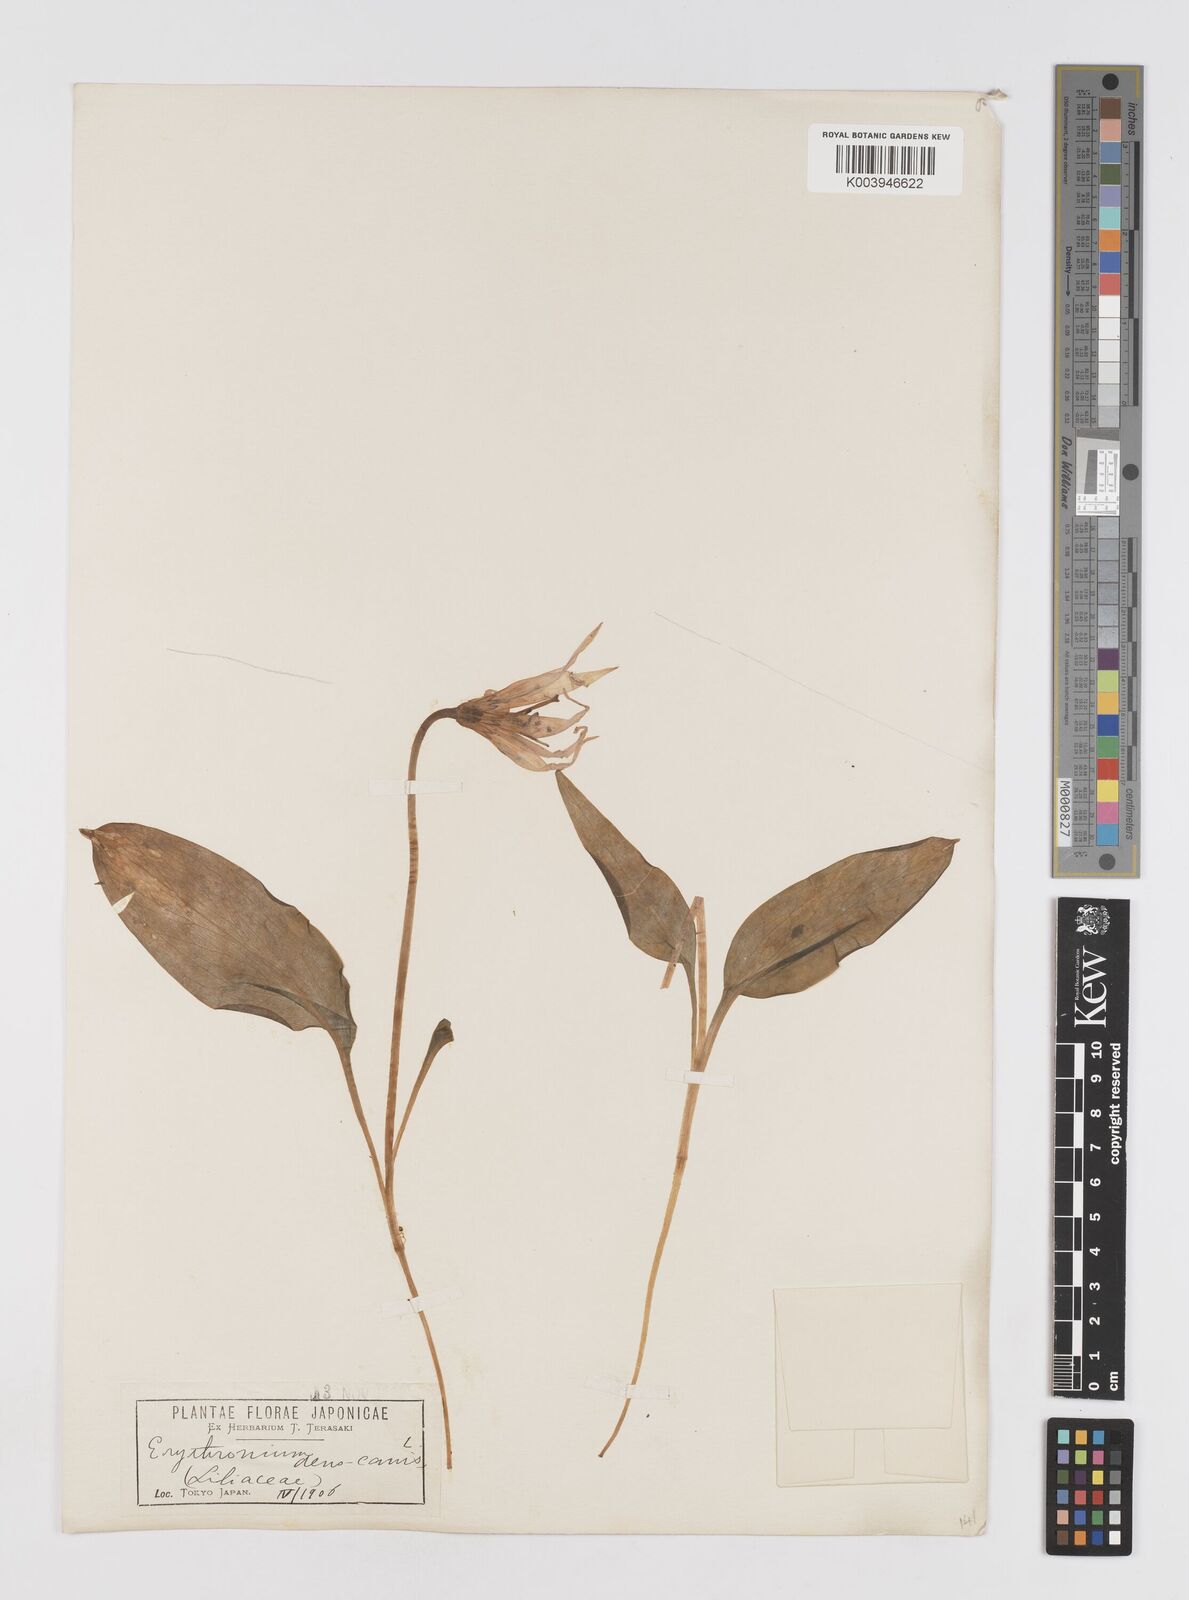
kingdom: Plantae
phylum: Tracheophyta
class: Liliopsida
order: Liliales
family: Liliaceae
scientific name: Liliaceae
